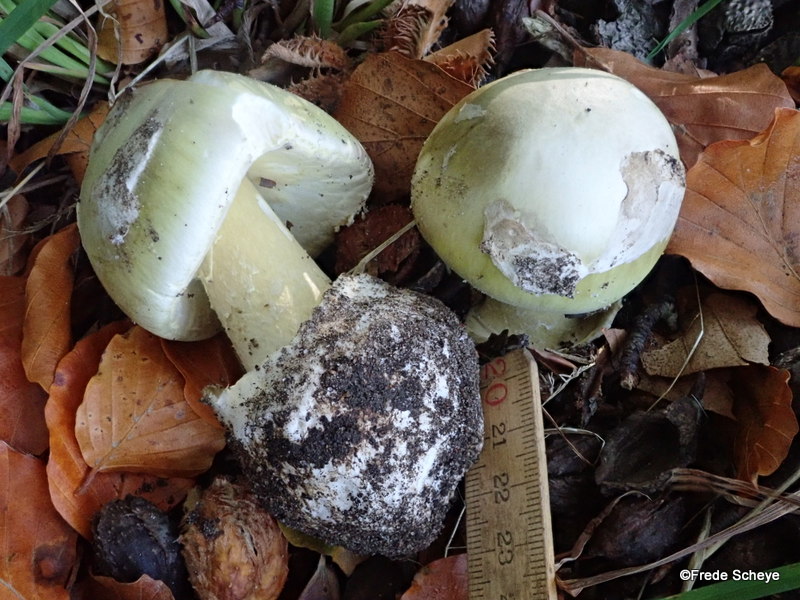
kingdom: Fungi
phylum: Basidiomycota
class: Agaricomycetes
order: Agaricales
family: Amanitaceae
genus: Amanita
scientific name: Amanita phalloides
